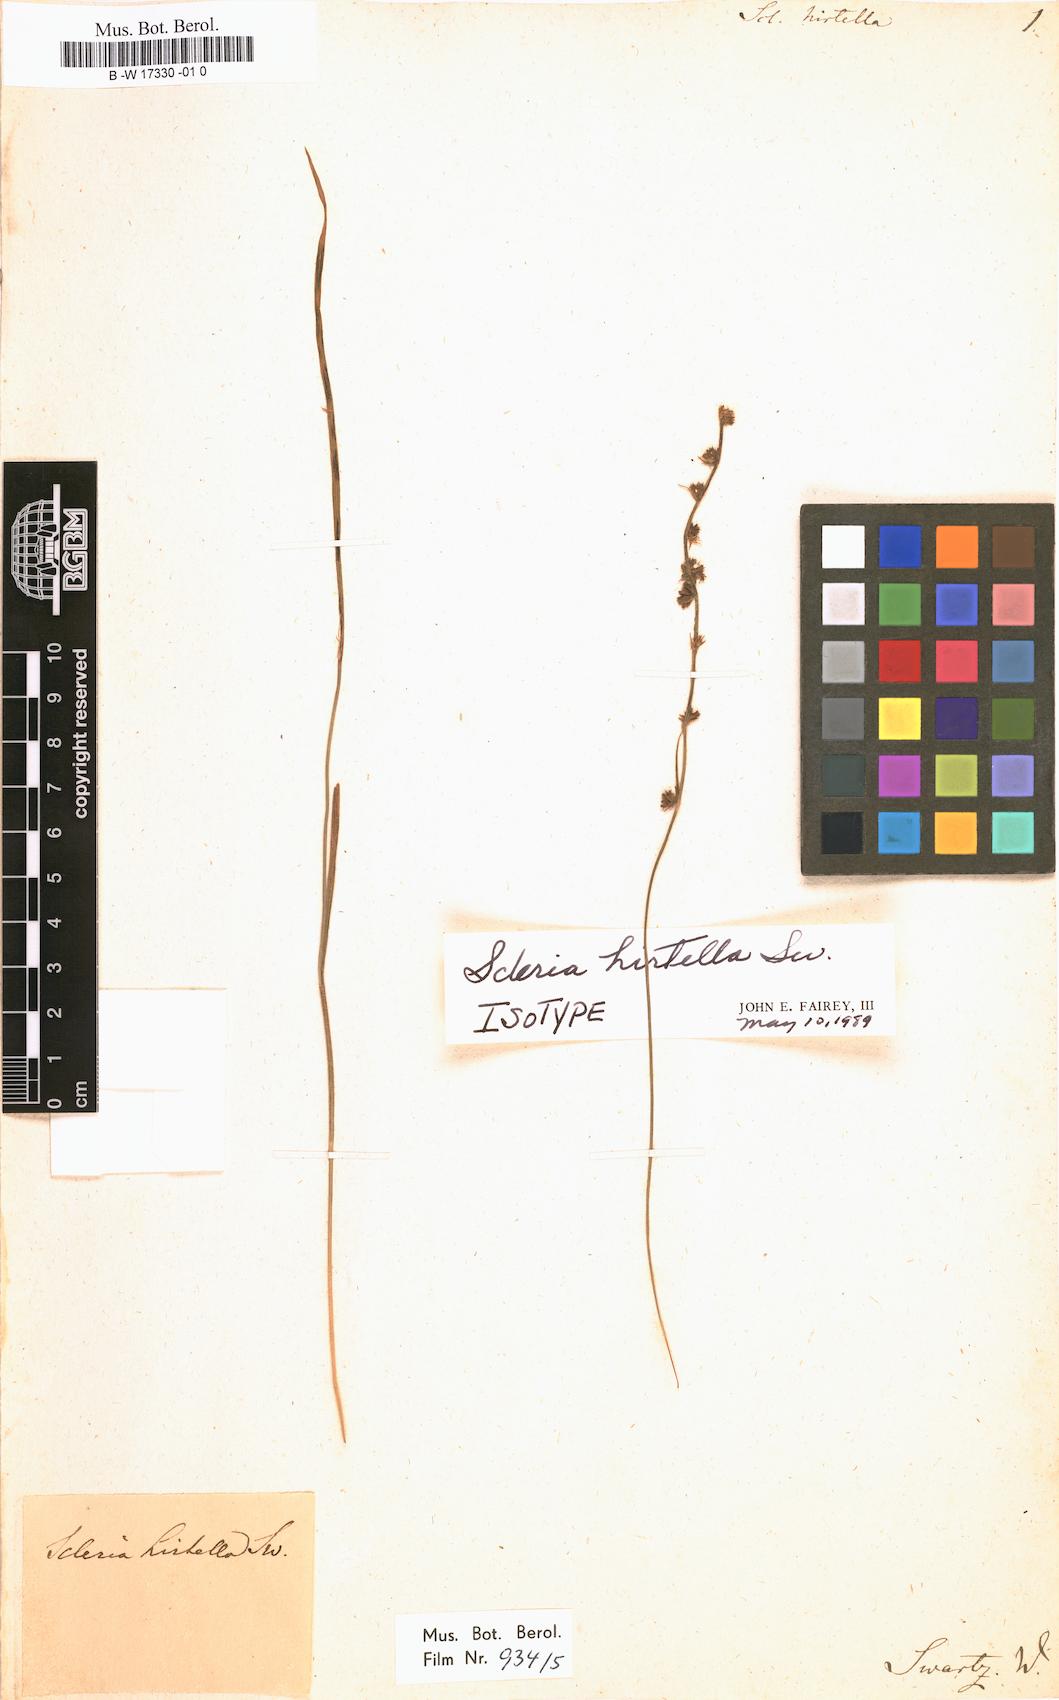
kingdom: Plantae
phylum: Tracheophyta
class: Liliopsida
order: Poales
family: Cyperaceae
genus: Scleria
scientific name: Scleria hirtella
